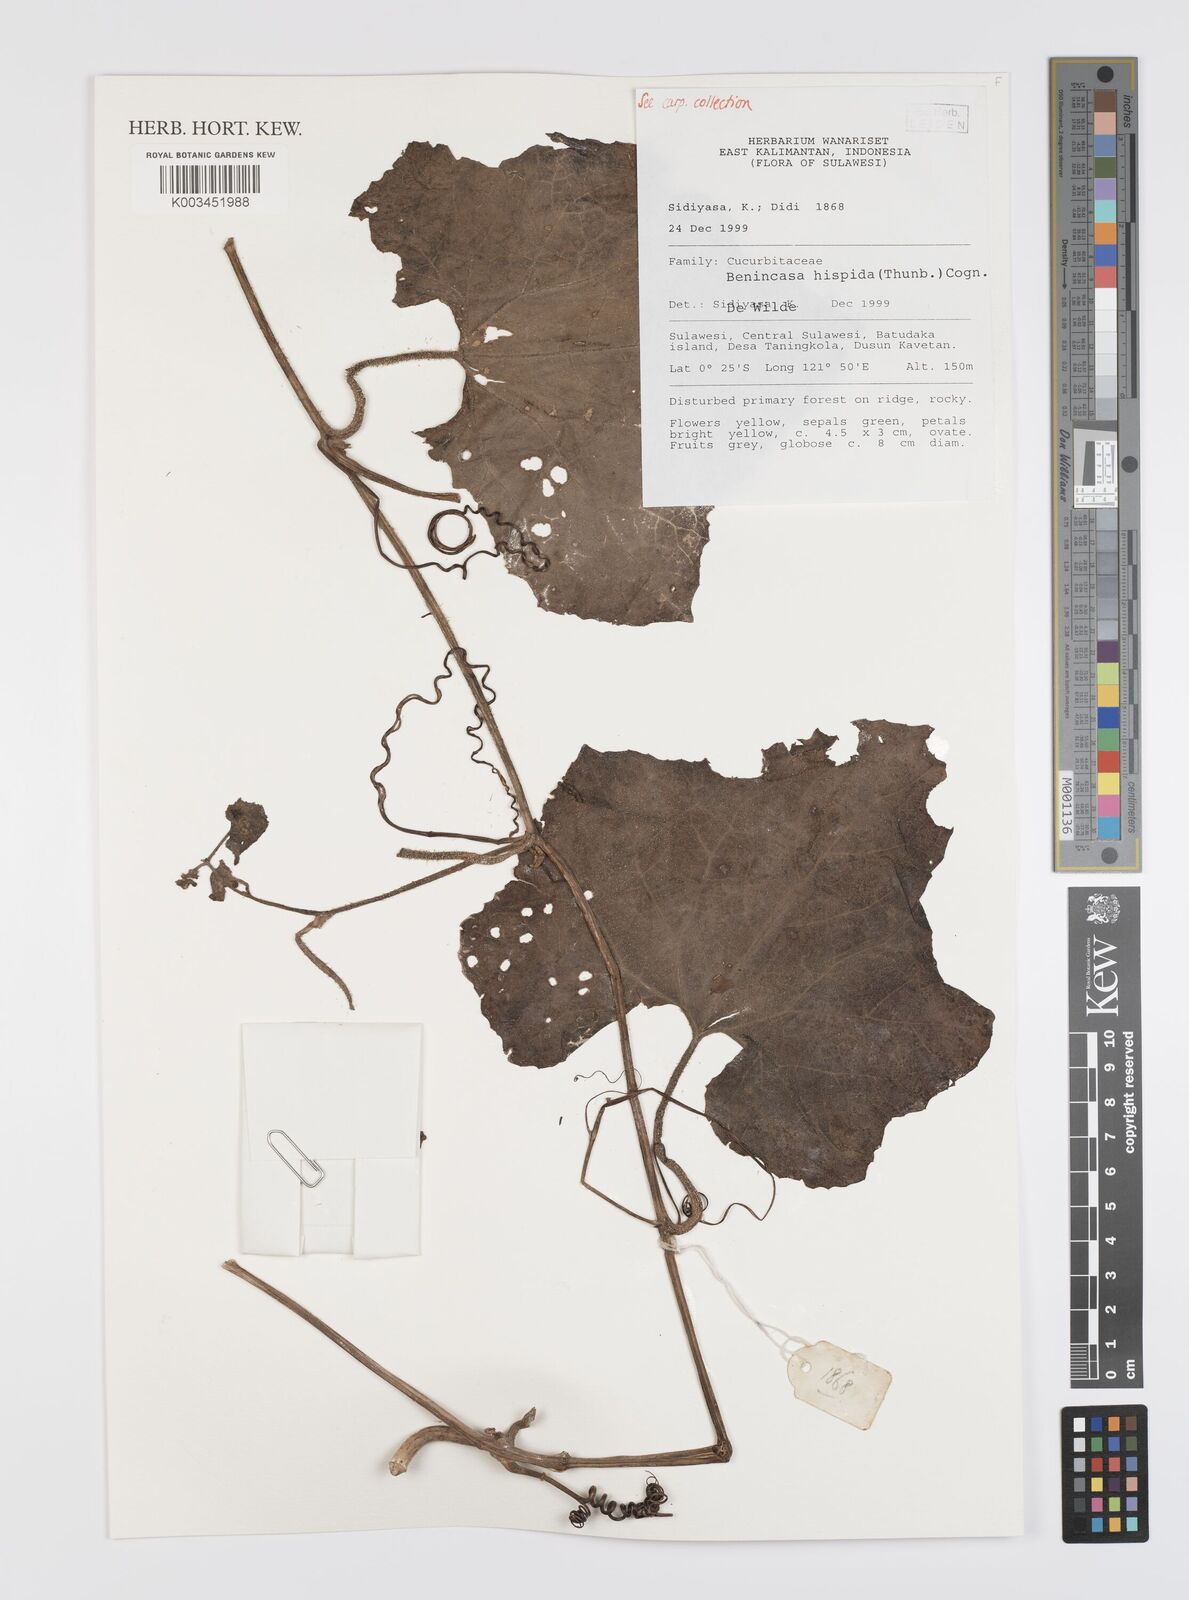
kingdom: Plantae
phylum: Tracheophyta
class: Magnoliopsida
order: Cucurbitales
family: Cucurbitaceae
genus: Benincasa
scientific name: Benincasa hispida
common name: Chinese-watermelon
